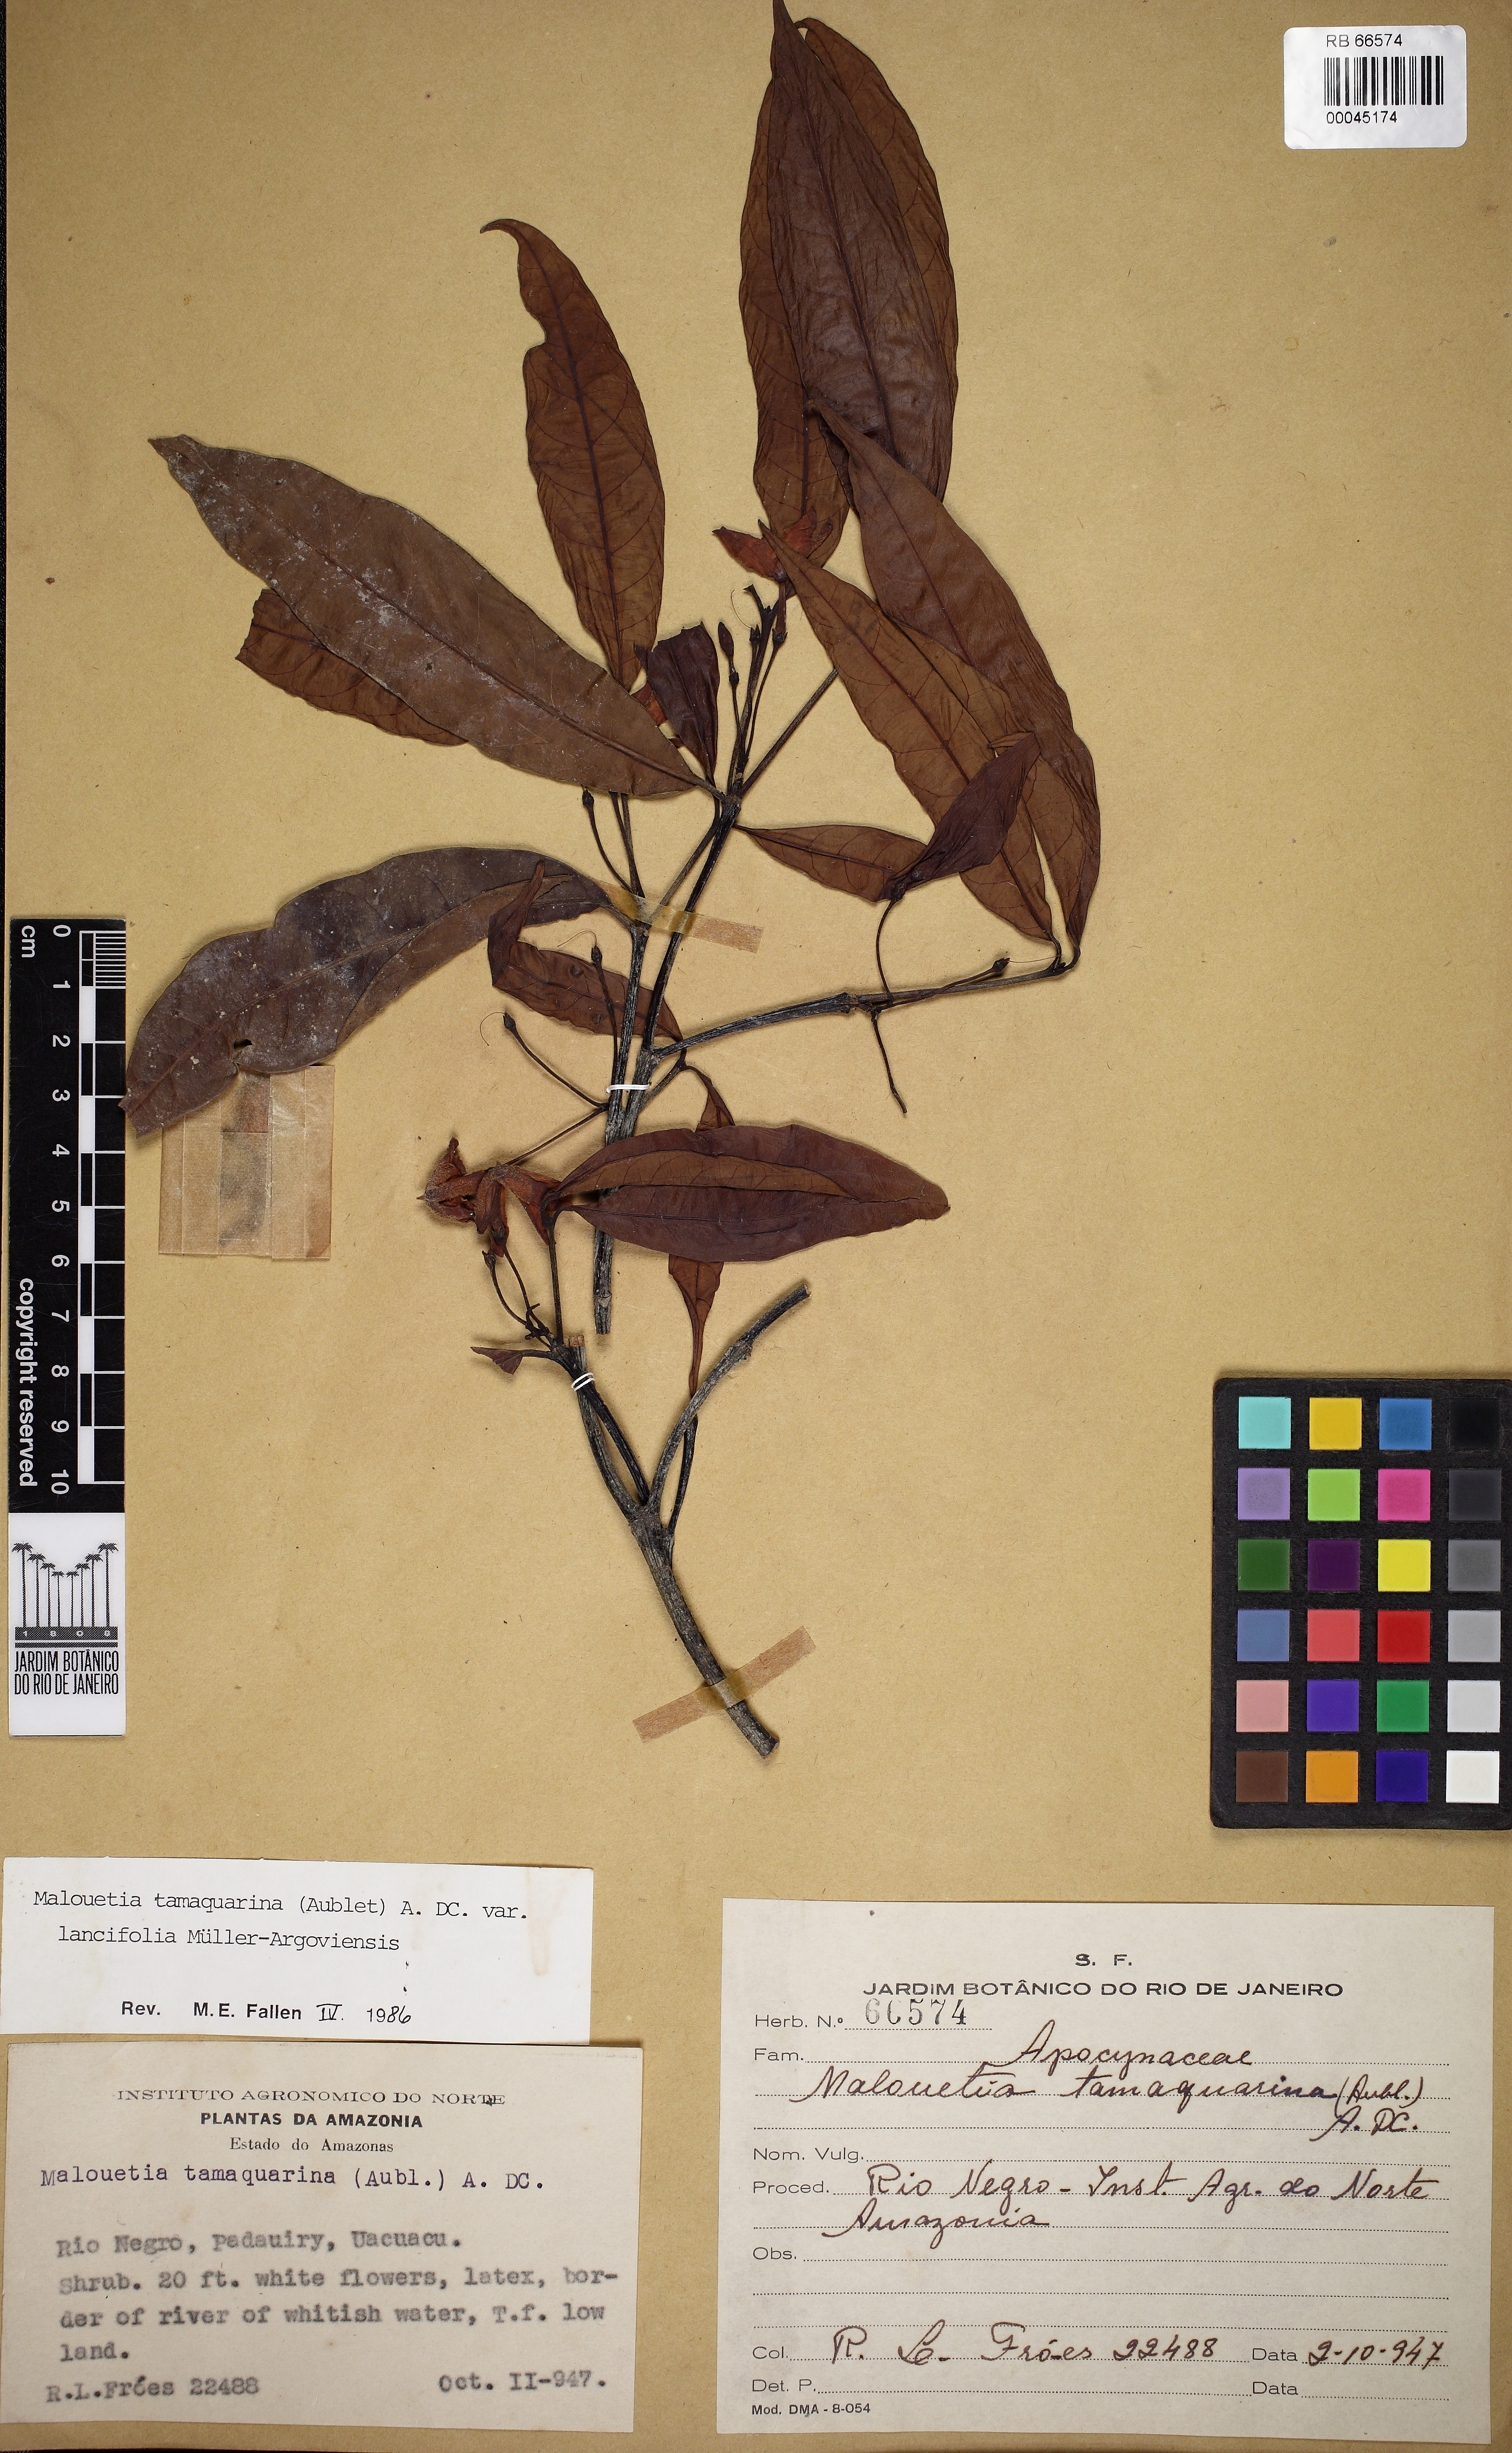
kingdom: Plantae
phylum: Tracheophyta
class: Magnoliopsida
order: Gentianales
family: Apocynaceae
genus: Malouetia
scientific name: Malouetia tamaquarina
